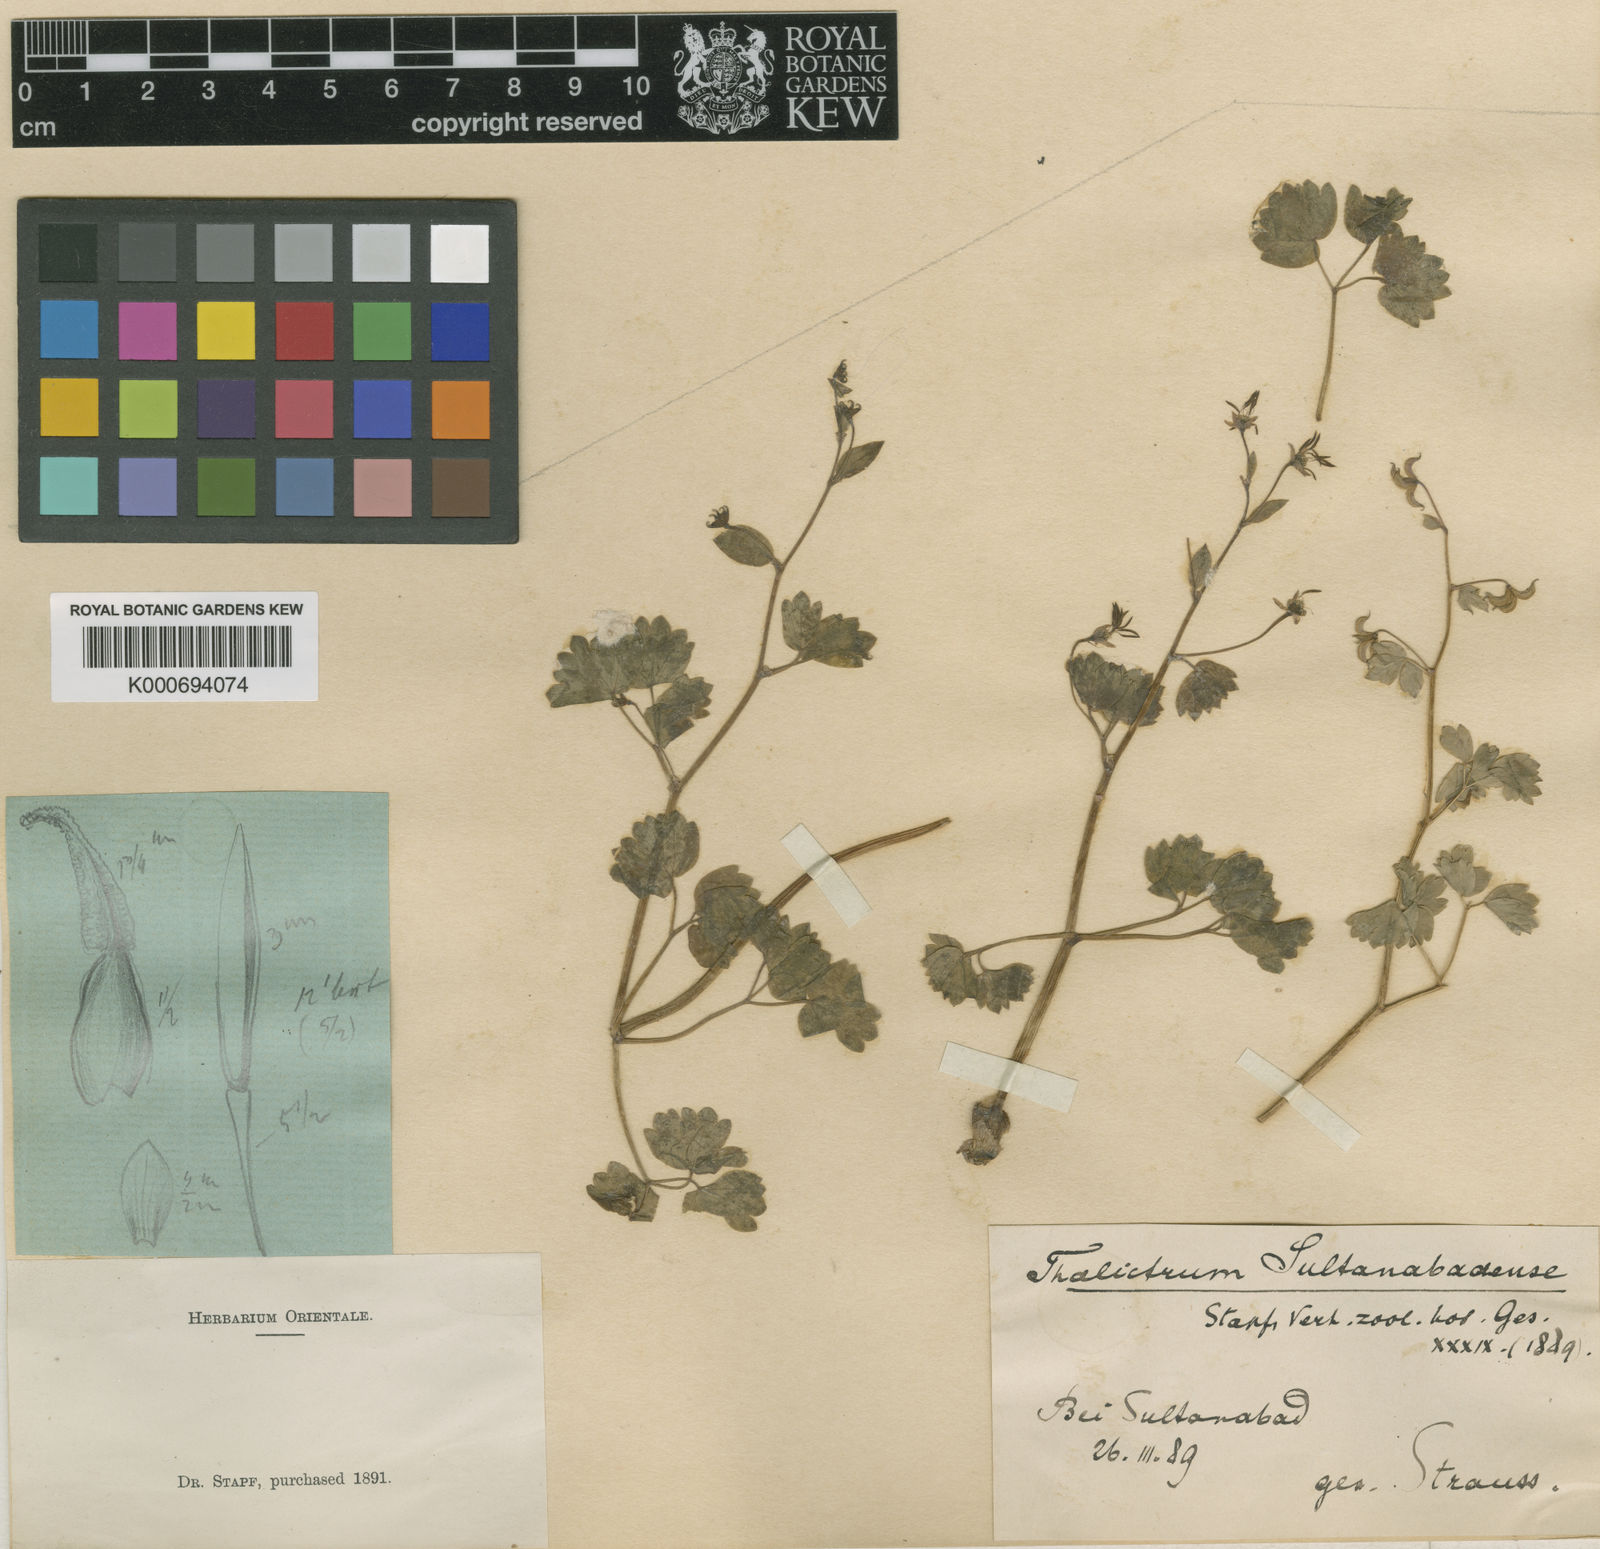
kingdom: Plantae
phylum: Tracheophyta
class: Magnoliopsida
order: Ranunculales
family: Ranunculaceae
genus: Thalictrum
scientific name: Thalictrum sultanabadense
